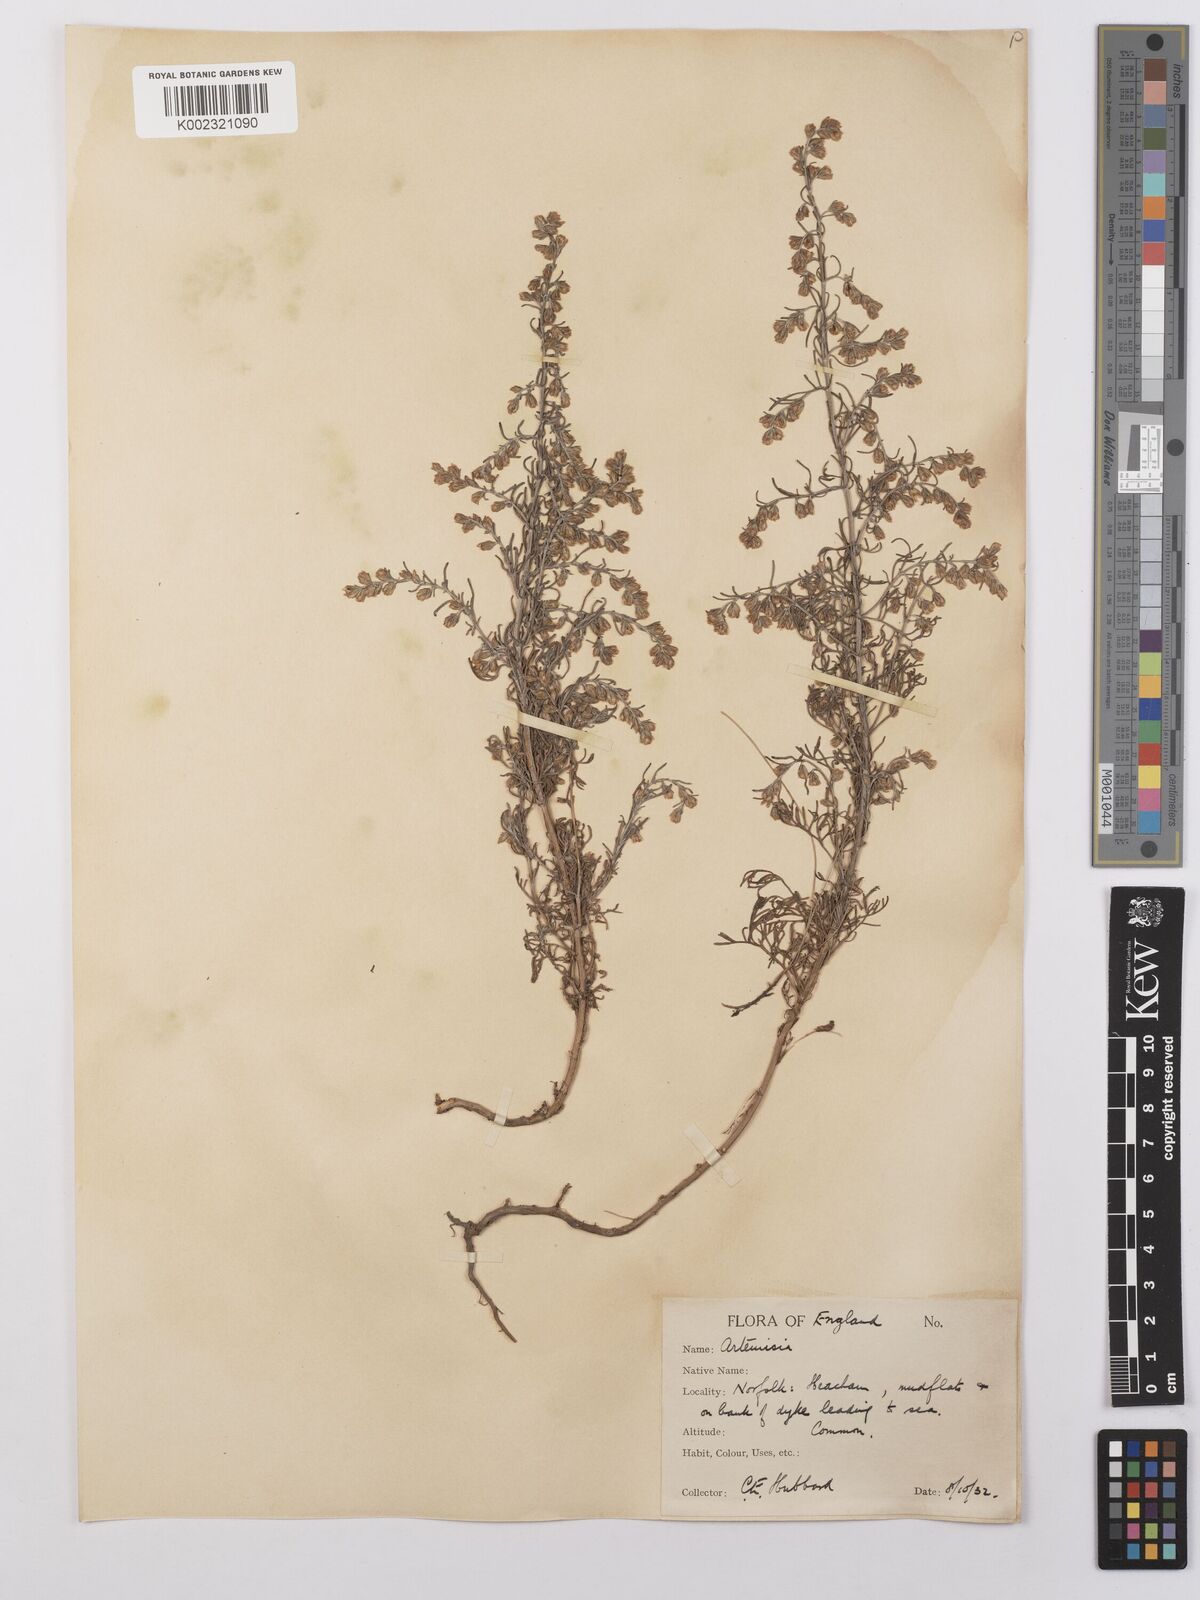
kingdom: Plantae
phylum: Tracheophyta
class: Magnoliopsida
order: Asterales
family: Asteraceae
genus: Artemisia
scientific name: Artemisia maritima
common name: Wormseed
